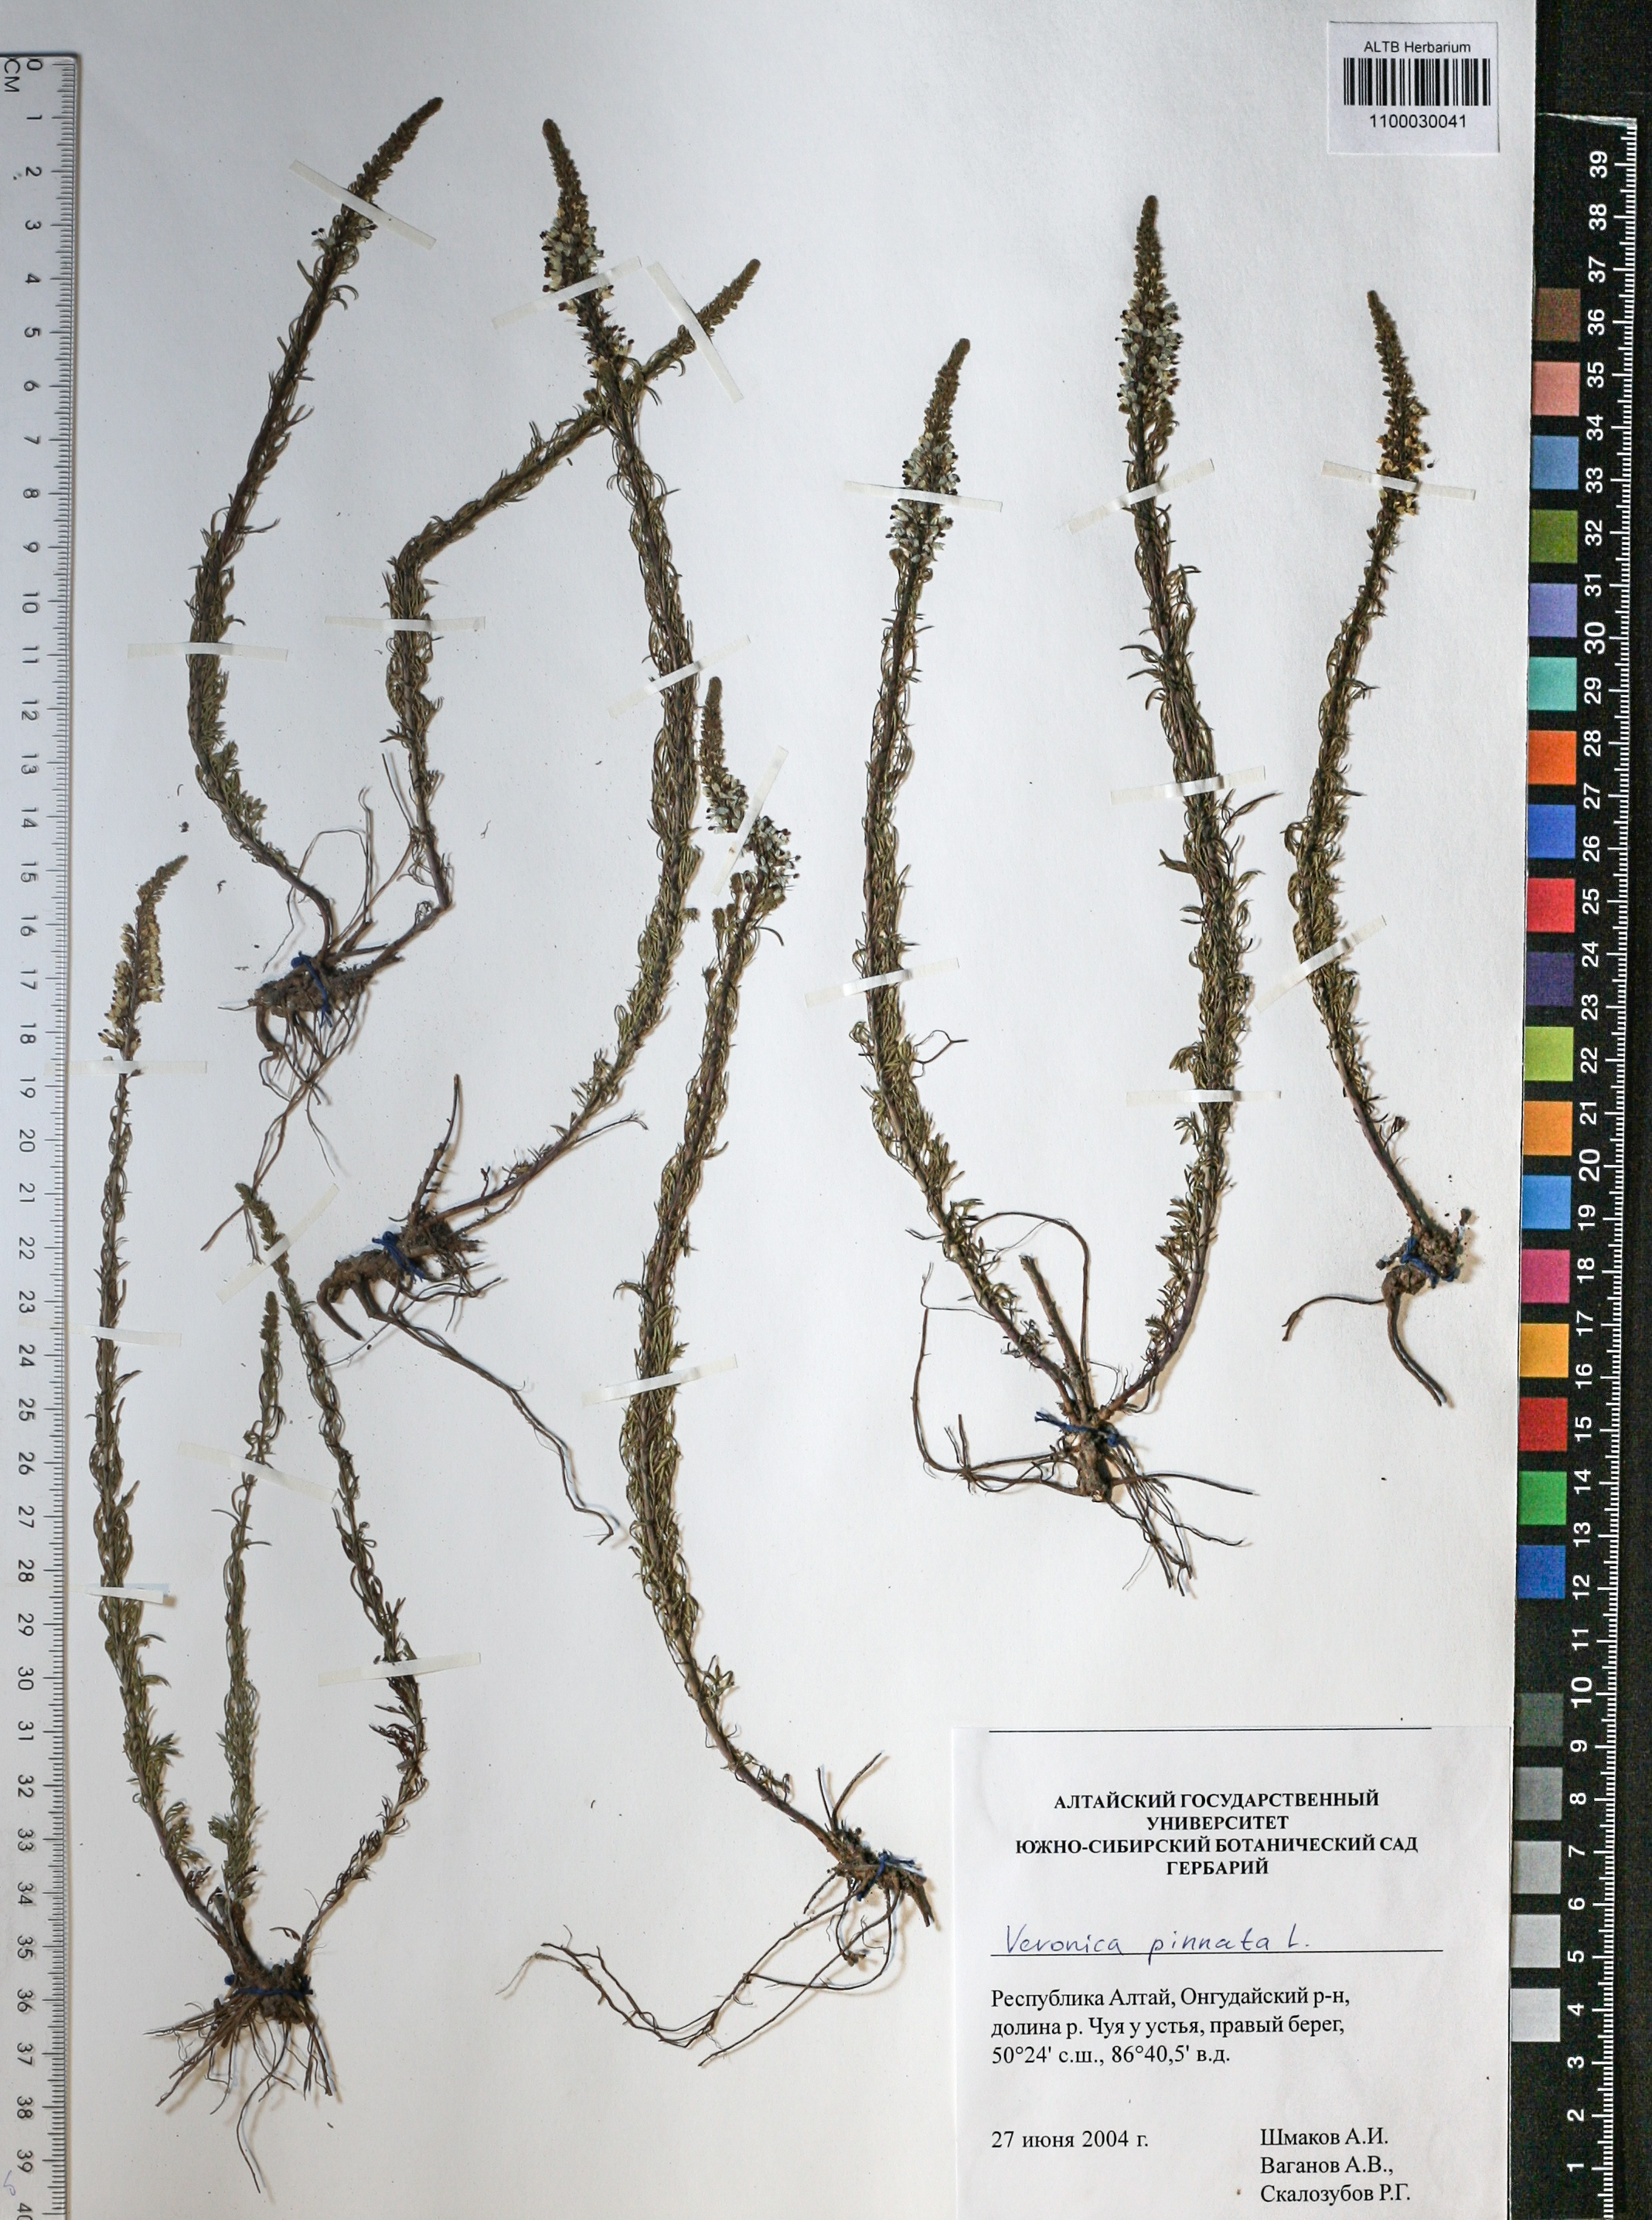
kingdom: Plantae
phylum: Tracheophyta
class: Magnoliopsida
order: Lamiales
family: Plantaginaceae
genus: Veronica
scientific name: Veronica pinnata
